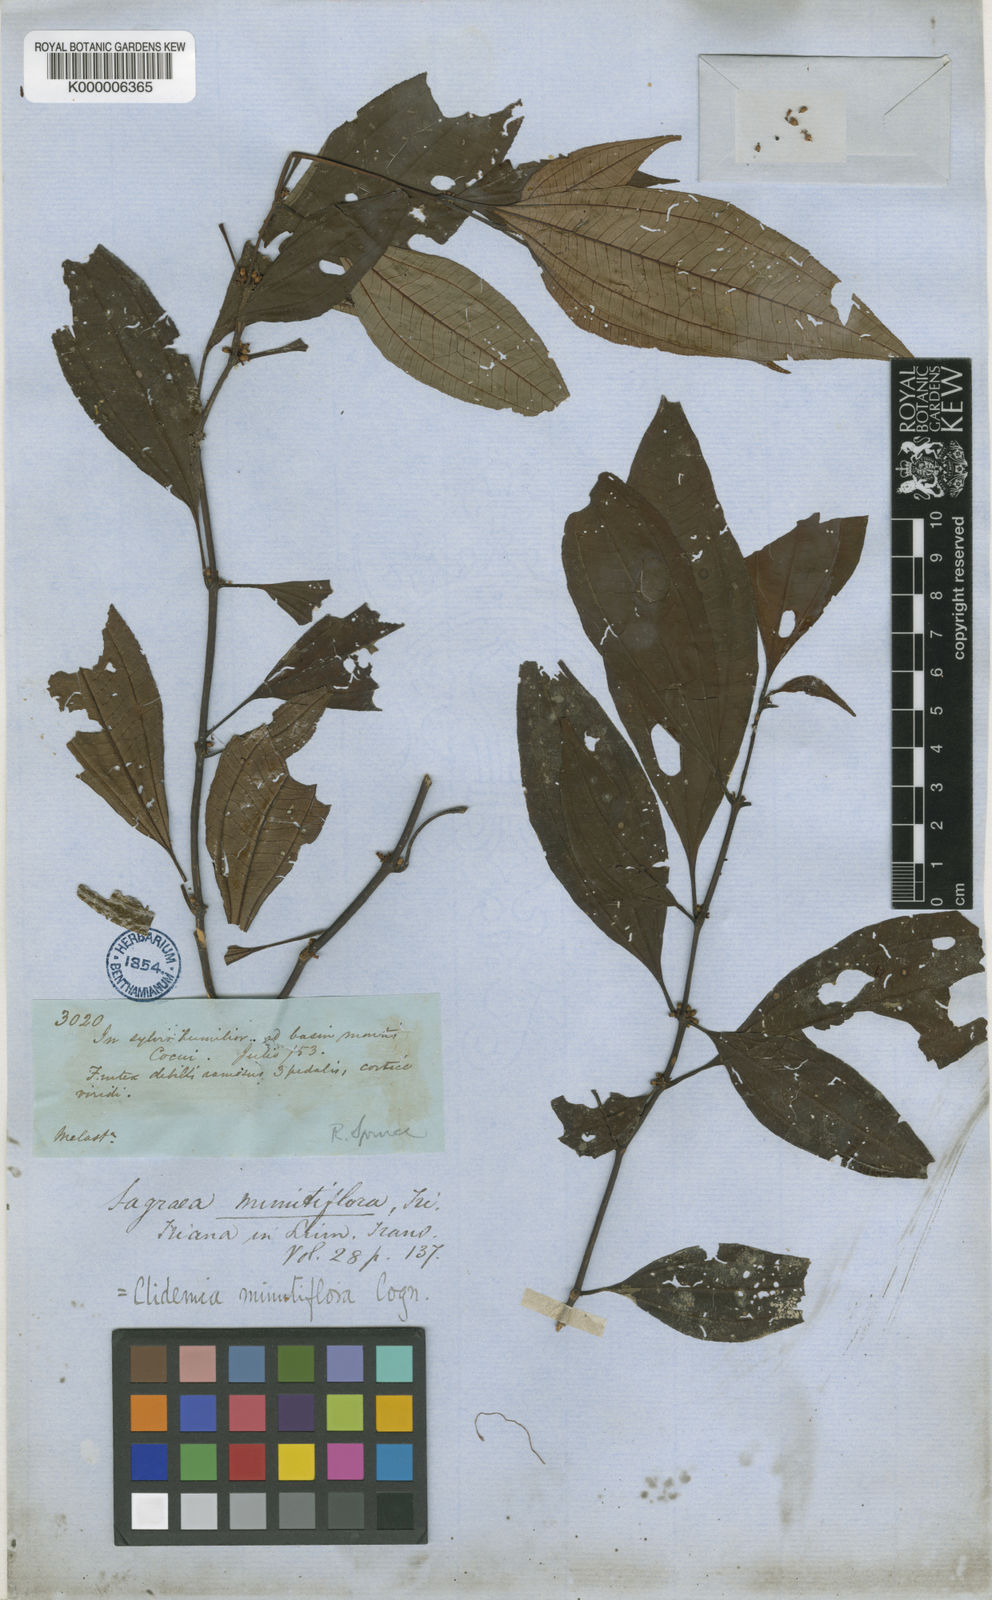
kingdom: Plantae
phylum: Tracheophyta
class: Magnoliopsida
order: Myrtales
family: Melastomataceae
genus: Miconia
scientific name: Miconia minutiflora
